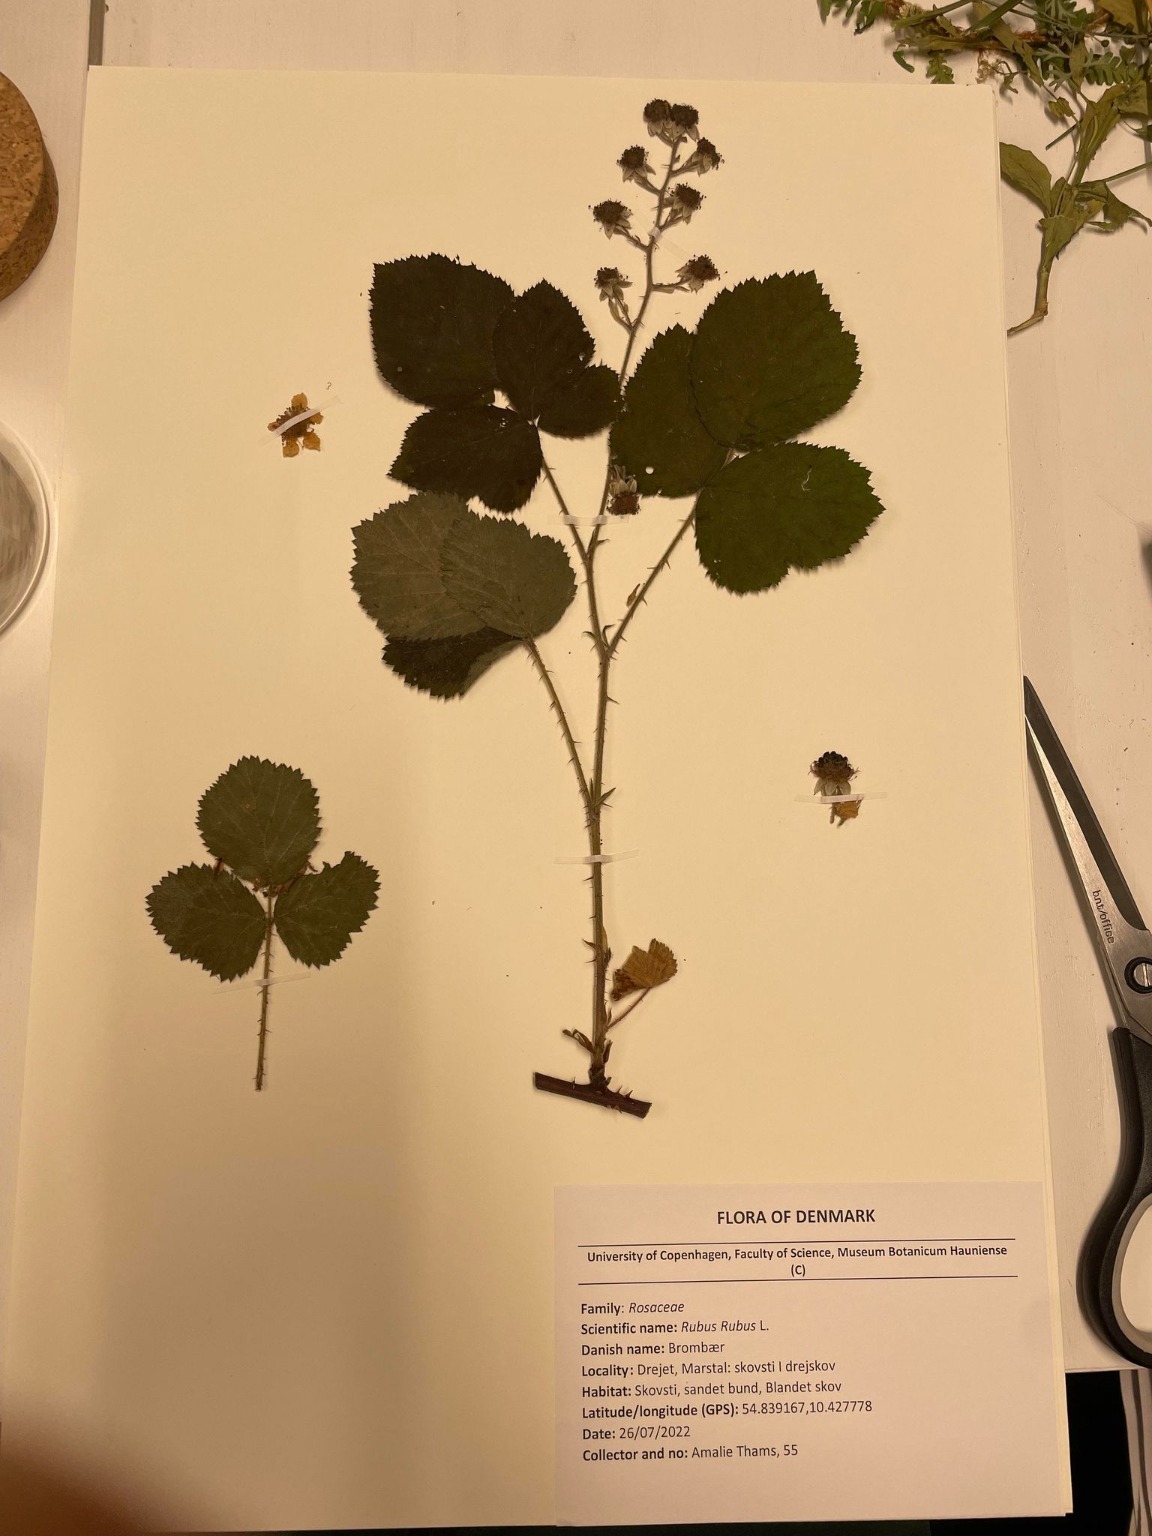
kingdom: Plantae
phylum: Tracheophyta
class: Magnoliopsida
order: Rosales
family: Rosaceae
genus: Rubus
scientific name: Rubus
